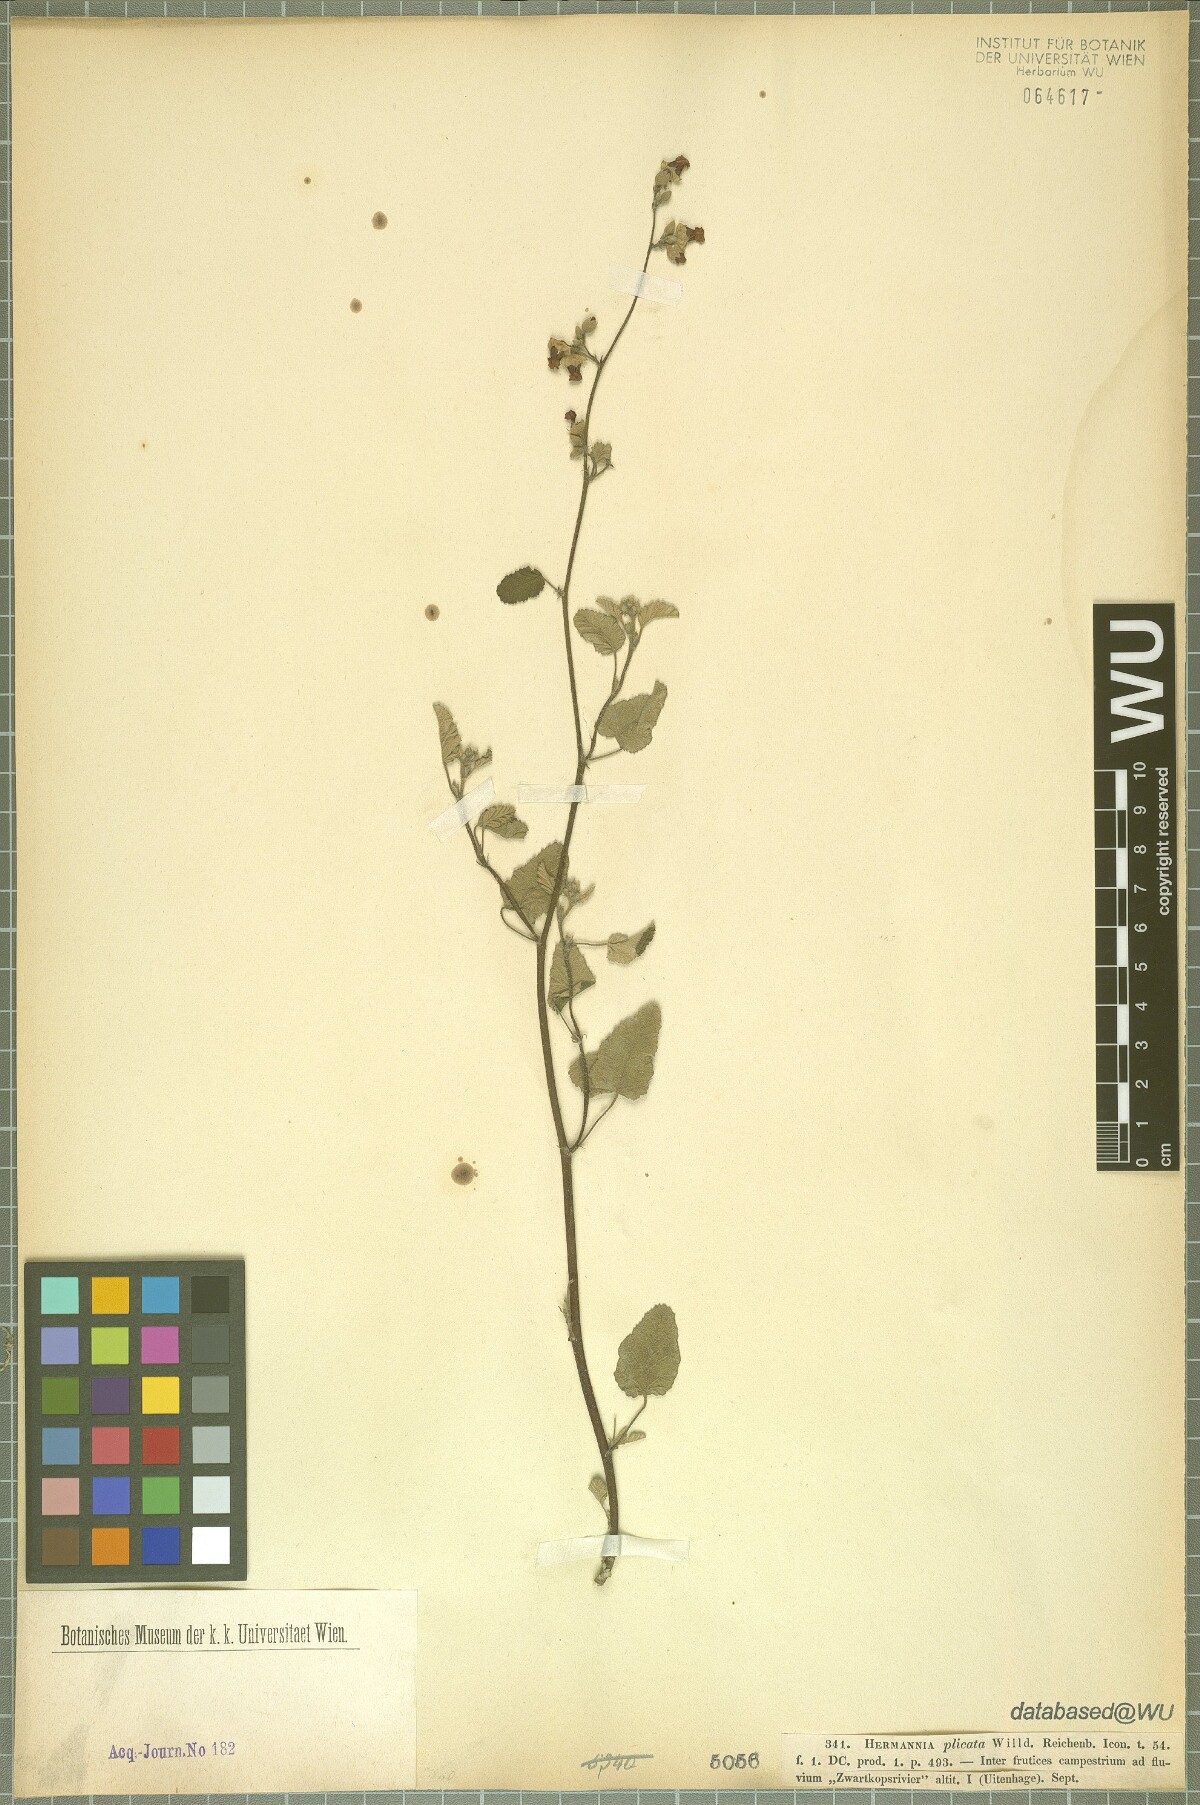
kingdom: Plantae
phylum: Tracheophyta
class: Magnoliopsida
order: Malvales
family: Malvaceae
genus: Hermannia
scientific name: Hermannia althaeifolia
